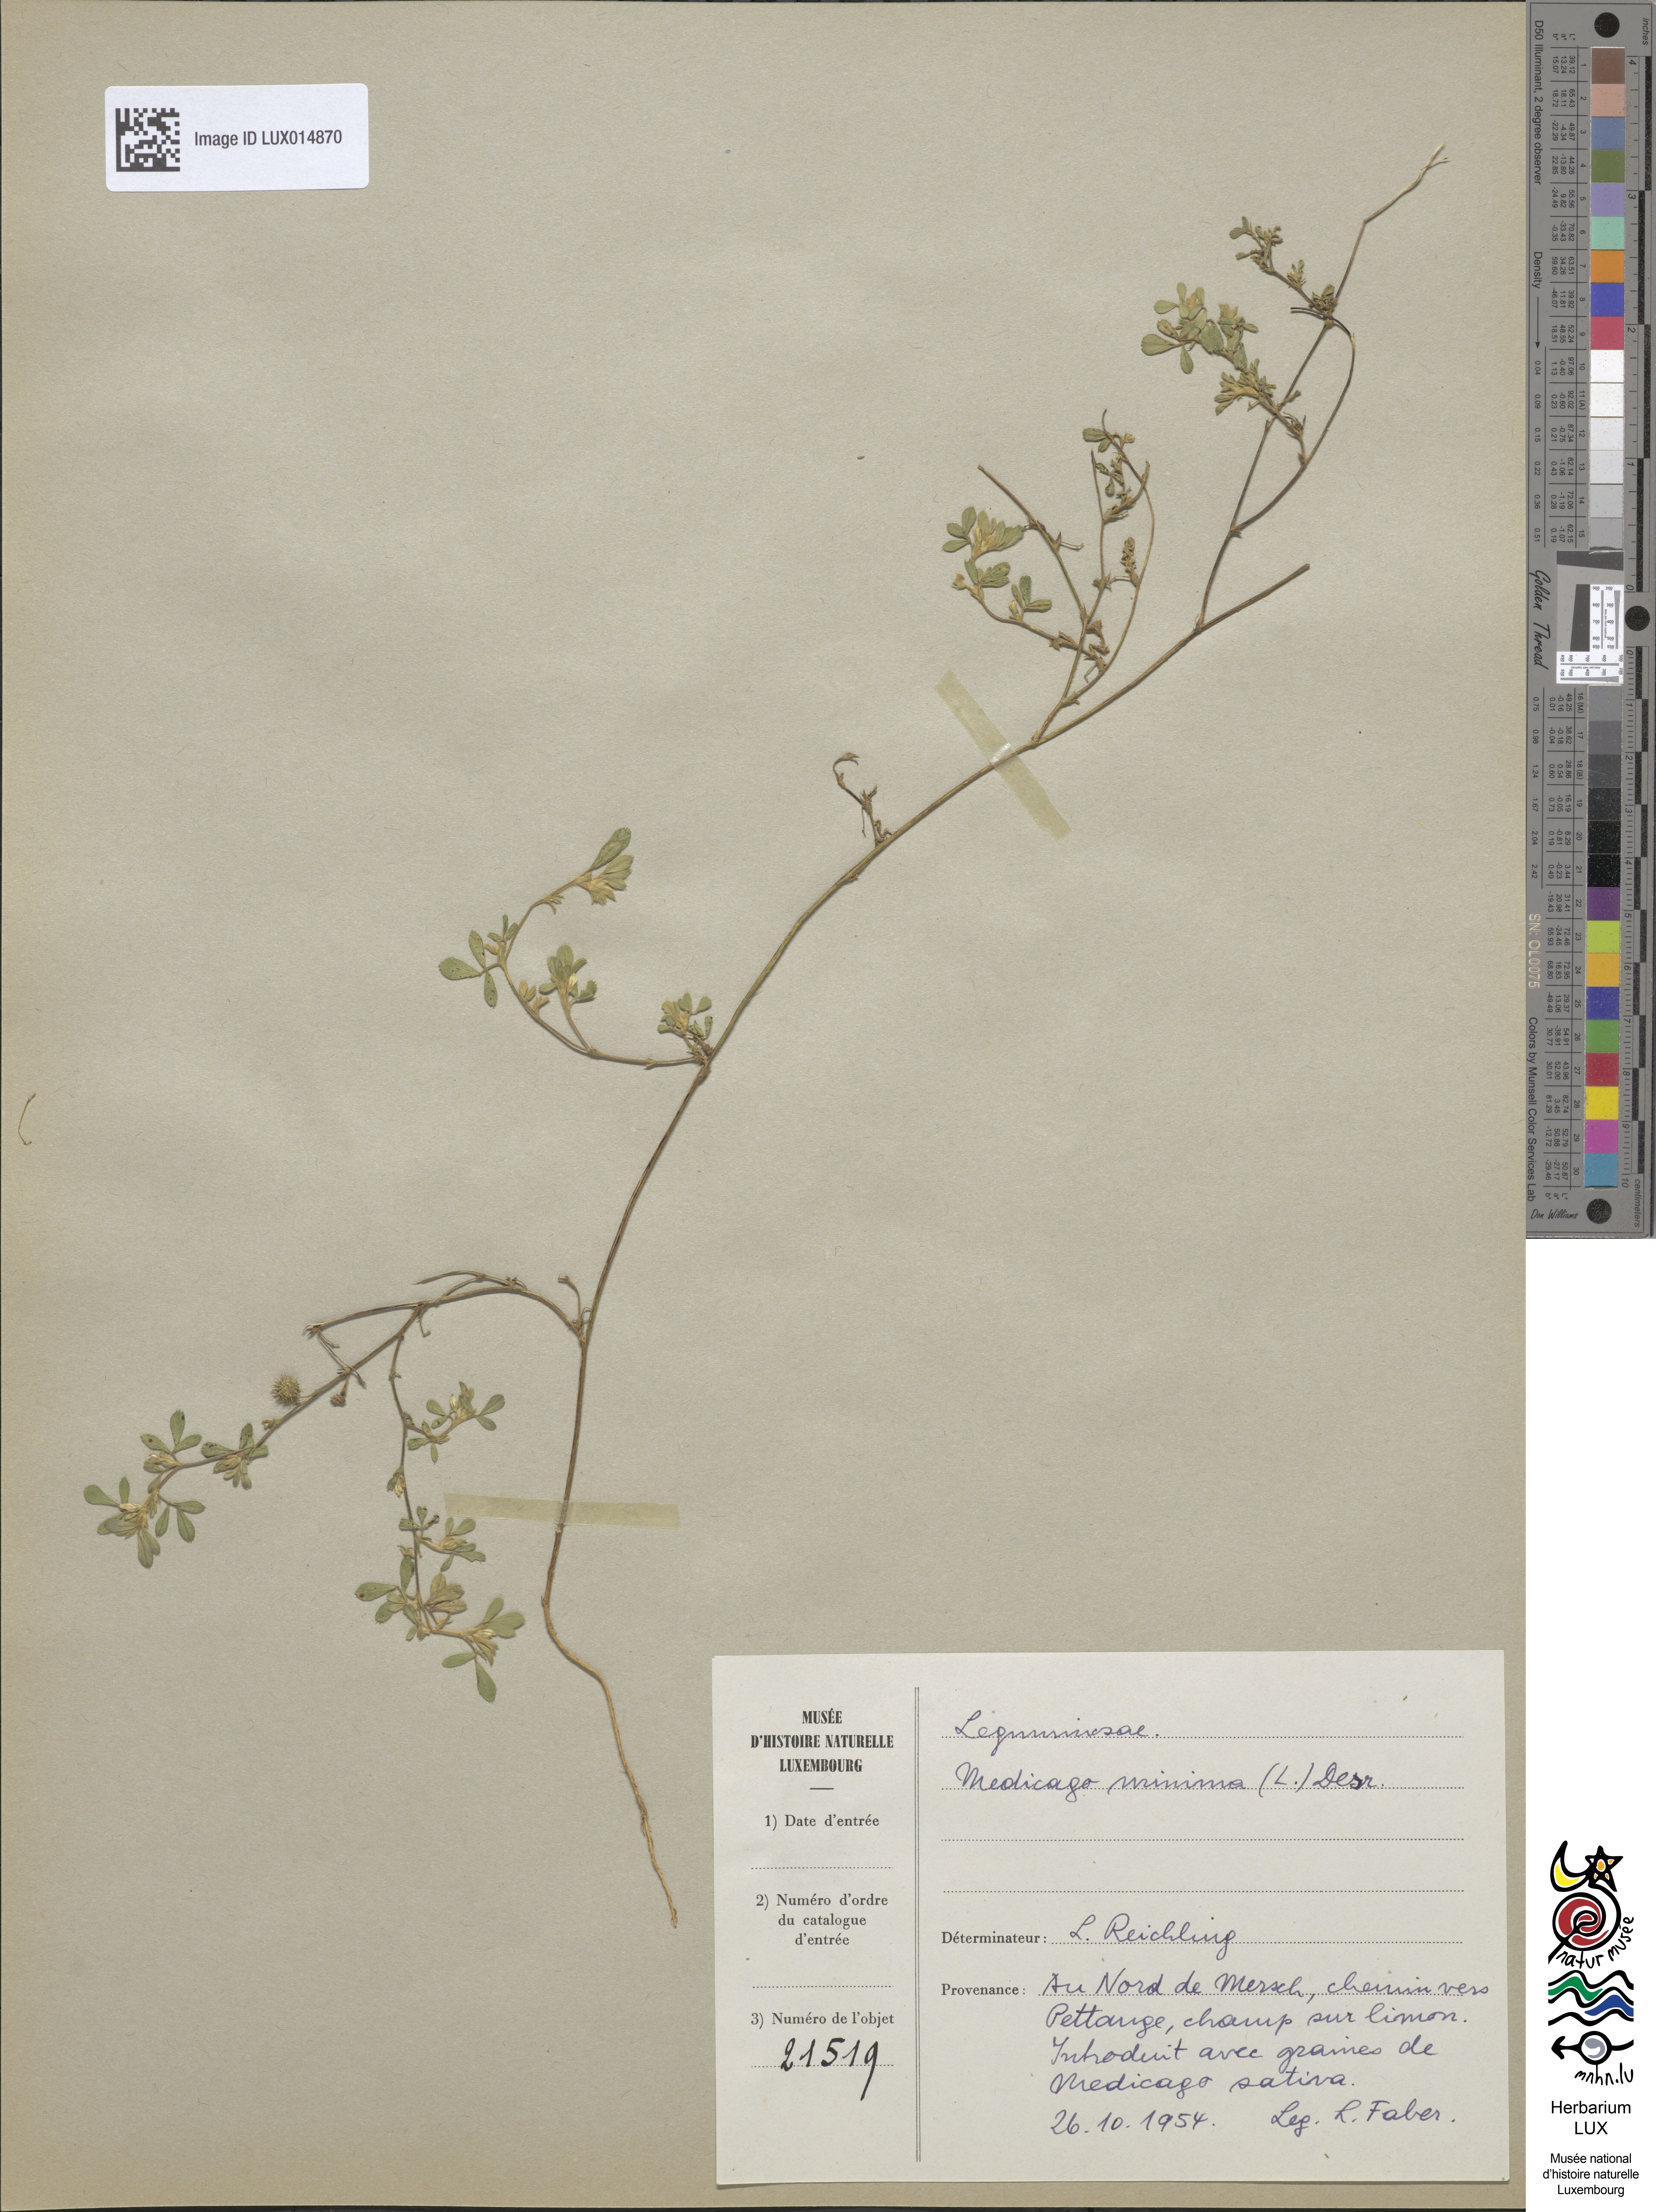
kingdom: Plantae
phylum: Tracheophyta
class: Magnoliopsida
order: Fabales
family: Fabaceae
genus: Medicago
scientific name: Medicago minima
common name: Little bur-clover
